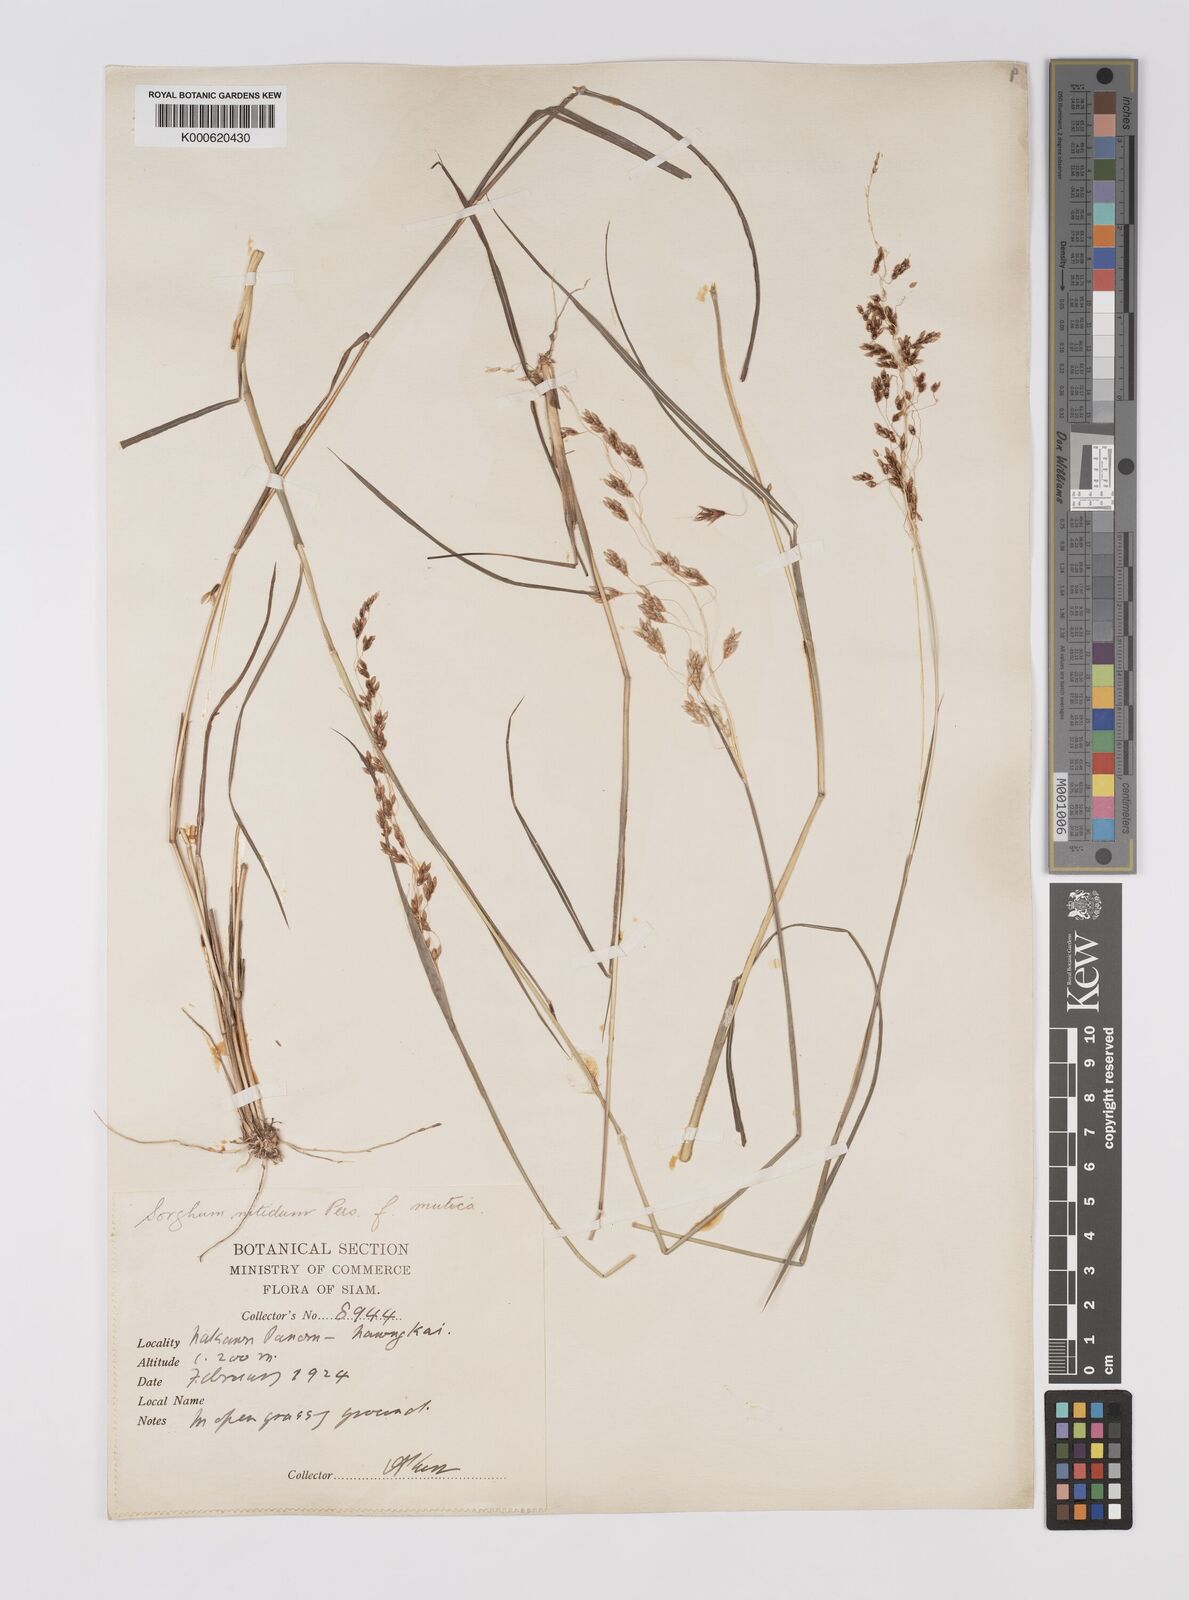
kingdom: Plantae
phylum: Tracheophyta
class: Liliopsida
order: Poales
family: Poaceae
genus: Sorghum
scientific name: Sorghum nitidum
